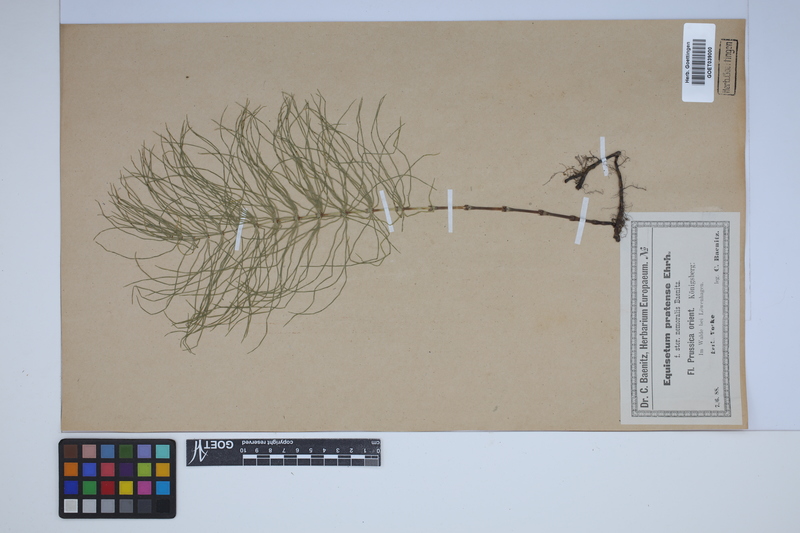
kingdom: Plantae
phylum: Tracheophyta
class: Polypodiopsida
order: Equisetales
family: Equisetaceae
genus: Equisetum
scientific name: Equisetum pratense
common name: Meadow horsetail
